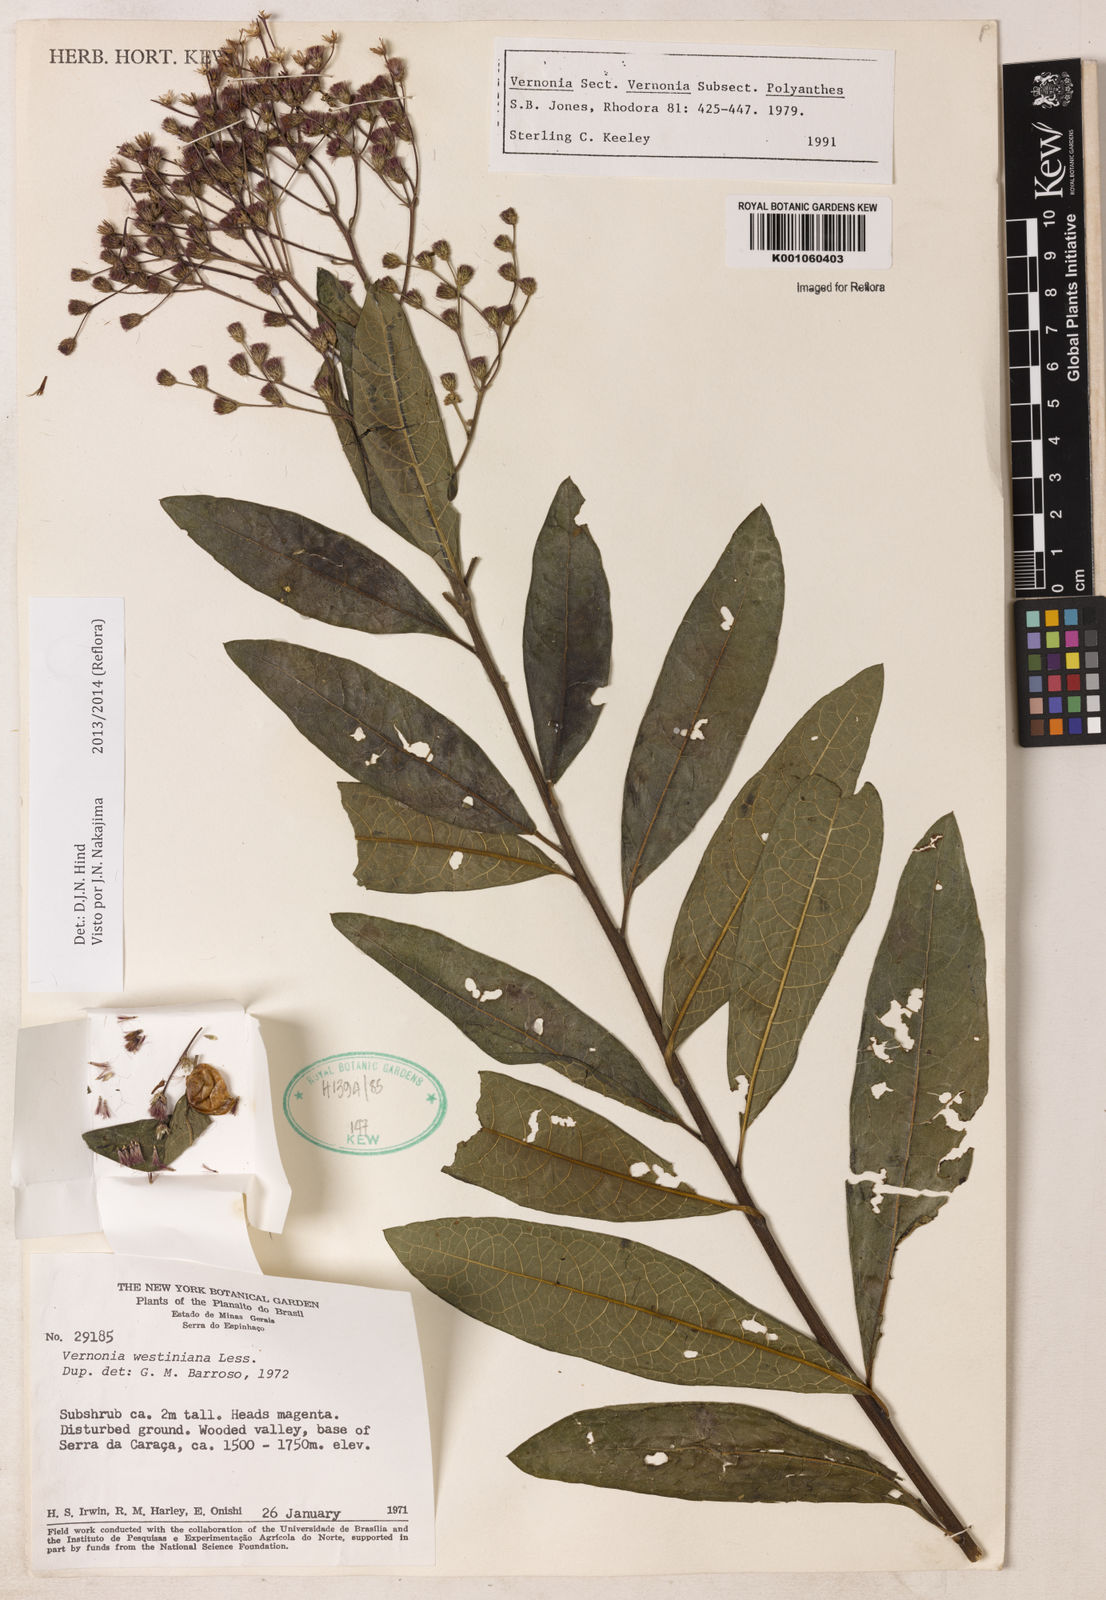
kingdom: Plantae
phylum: Tracheophyta
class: Magnoliopsida
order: Asterales
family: Asteraceae
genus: Vernonanthura
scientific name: Vernonanthura westiniana
